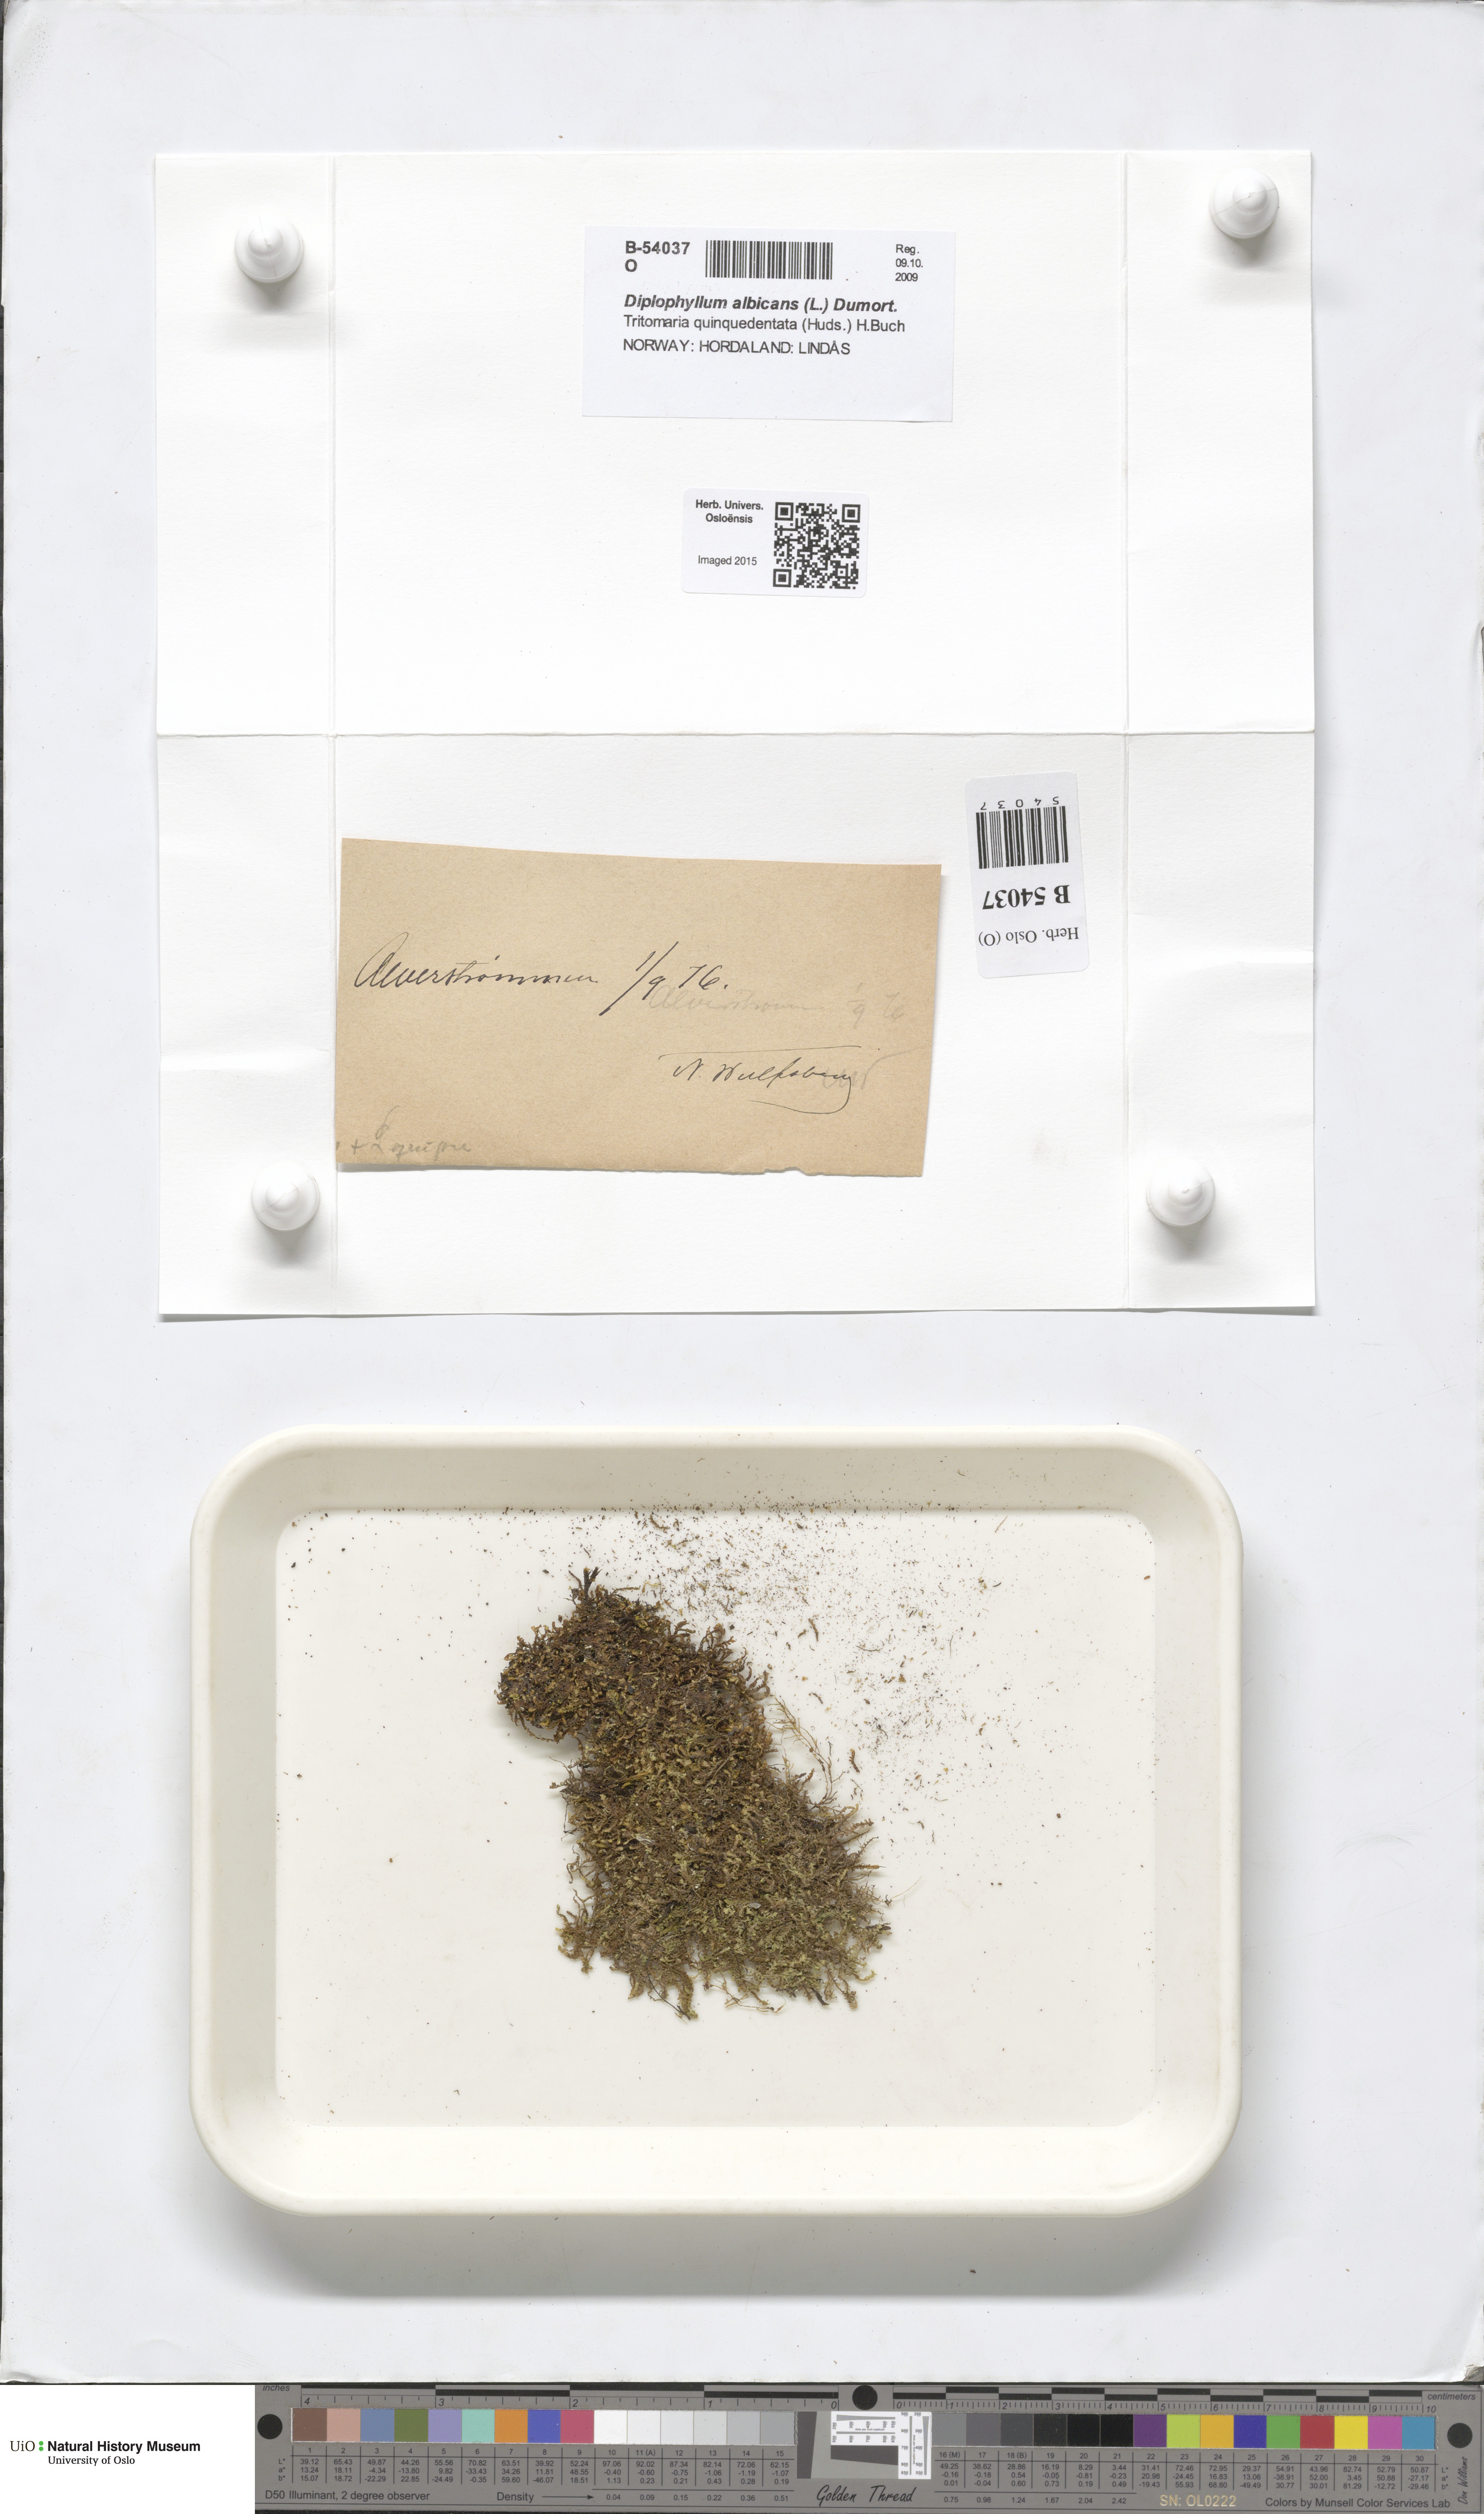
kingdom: Plantae
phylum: Marchantiophyta
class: Jungermanniopsida
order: Jungermanniales
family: Scapaniaceae
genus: Diplophyllum
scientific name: Diplophyllum albicans
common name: White earwort
